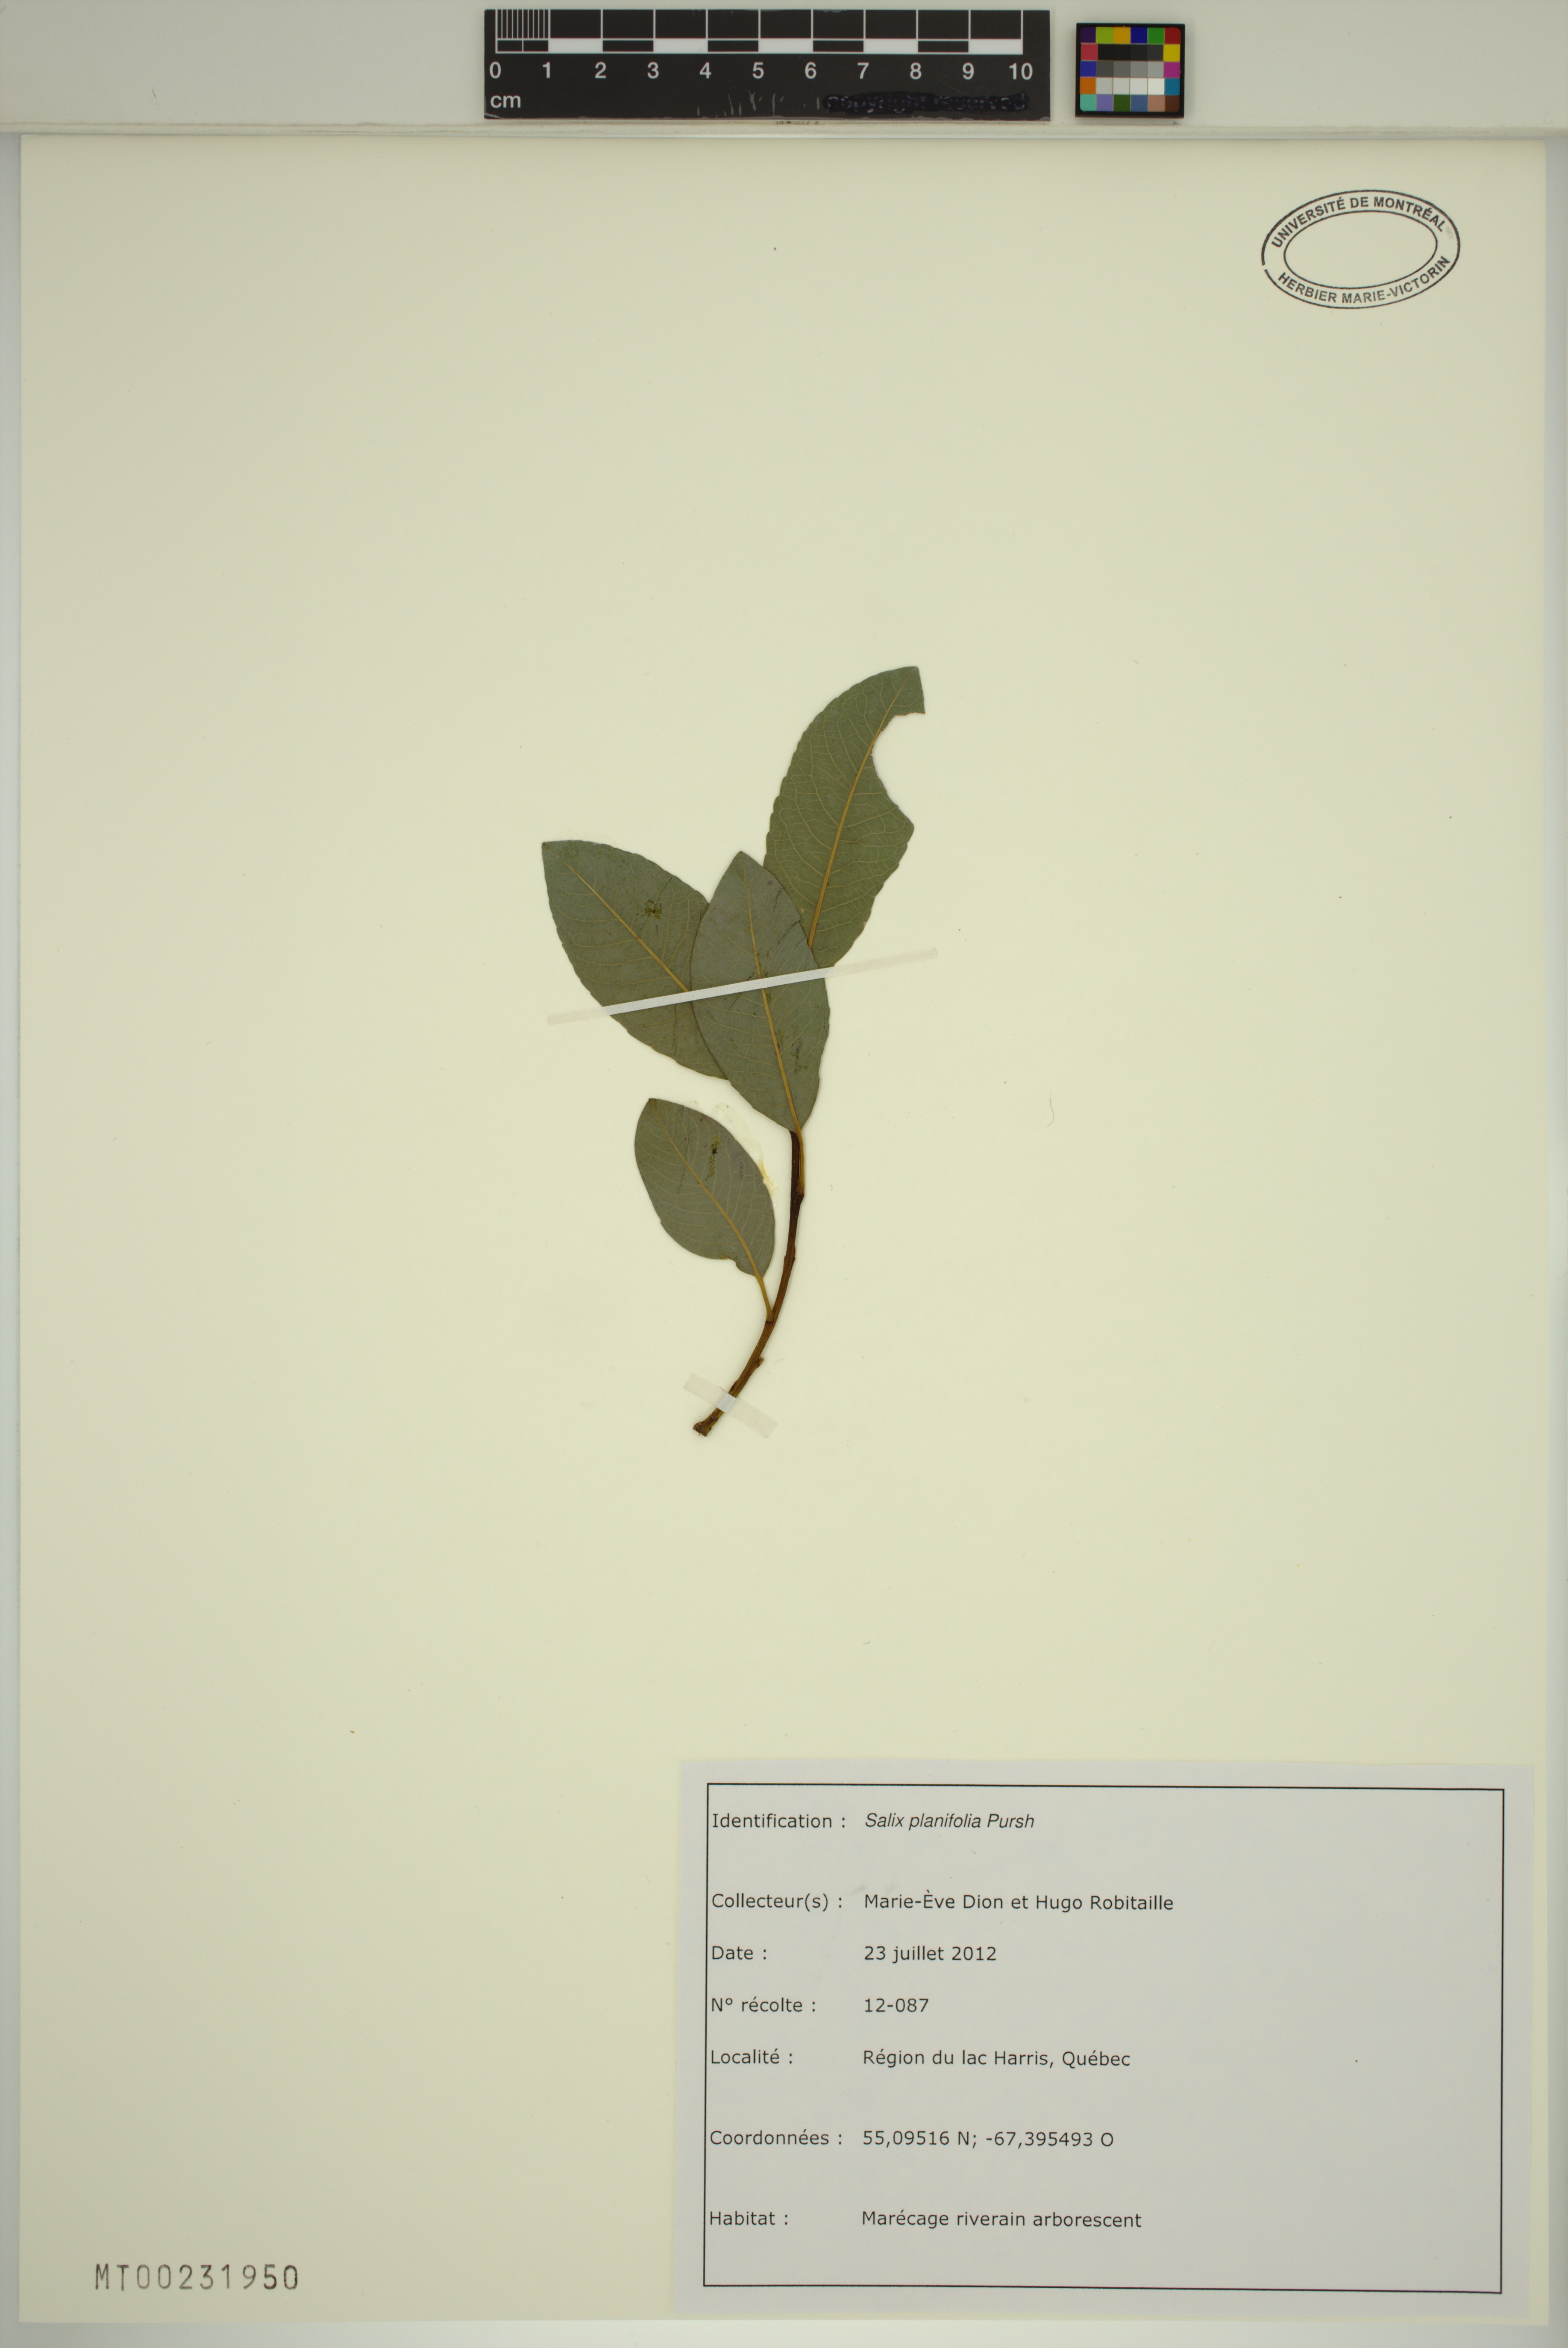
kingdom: Plantae
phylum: Tracheophyta
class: Magnoliopsida
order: Malpighiales
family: Salicaceae
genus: Salix
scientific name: Salix planifolia
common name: Mountain willow
